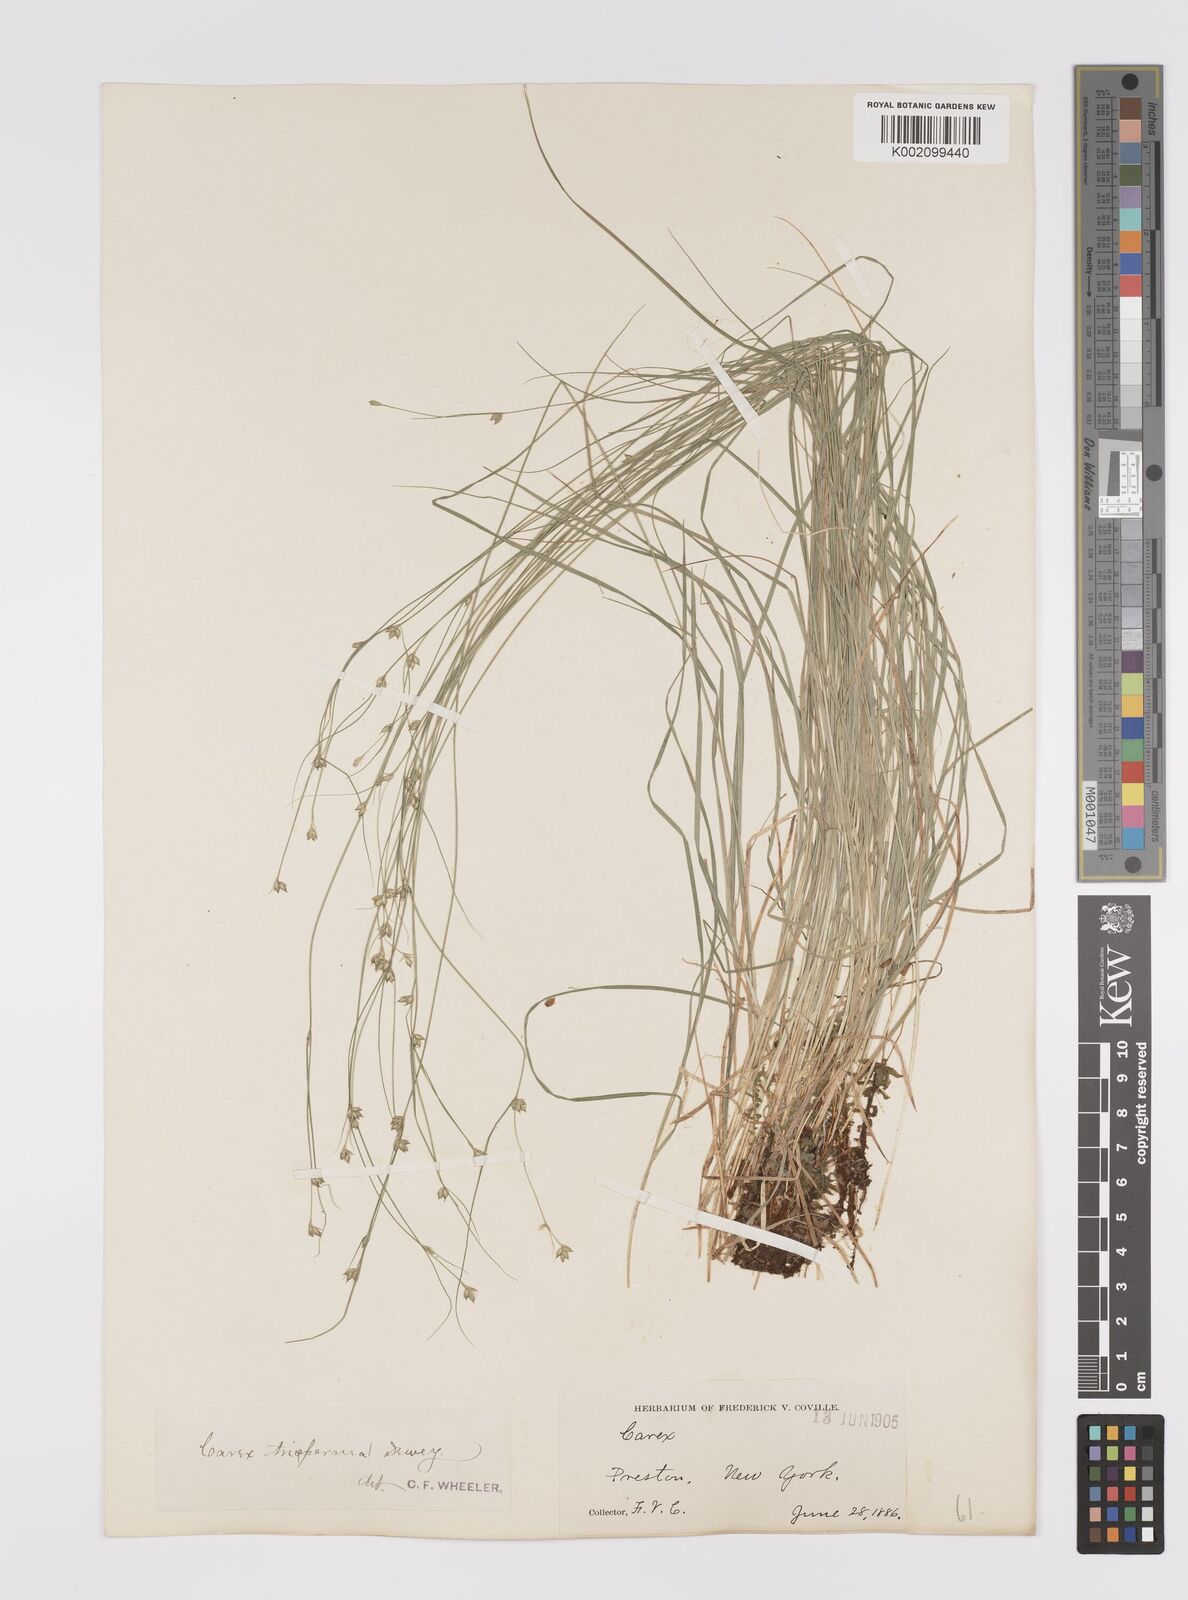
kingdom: Plantae
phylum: Tracheophyta
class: Liliopsida
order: Poales
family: Cyperaceae
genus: Carex
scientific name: Carex trisperma
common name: Three-seeded sedge
